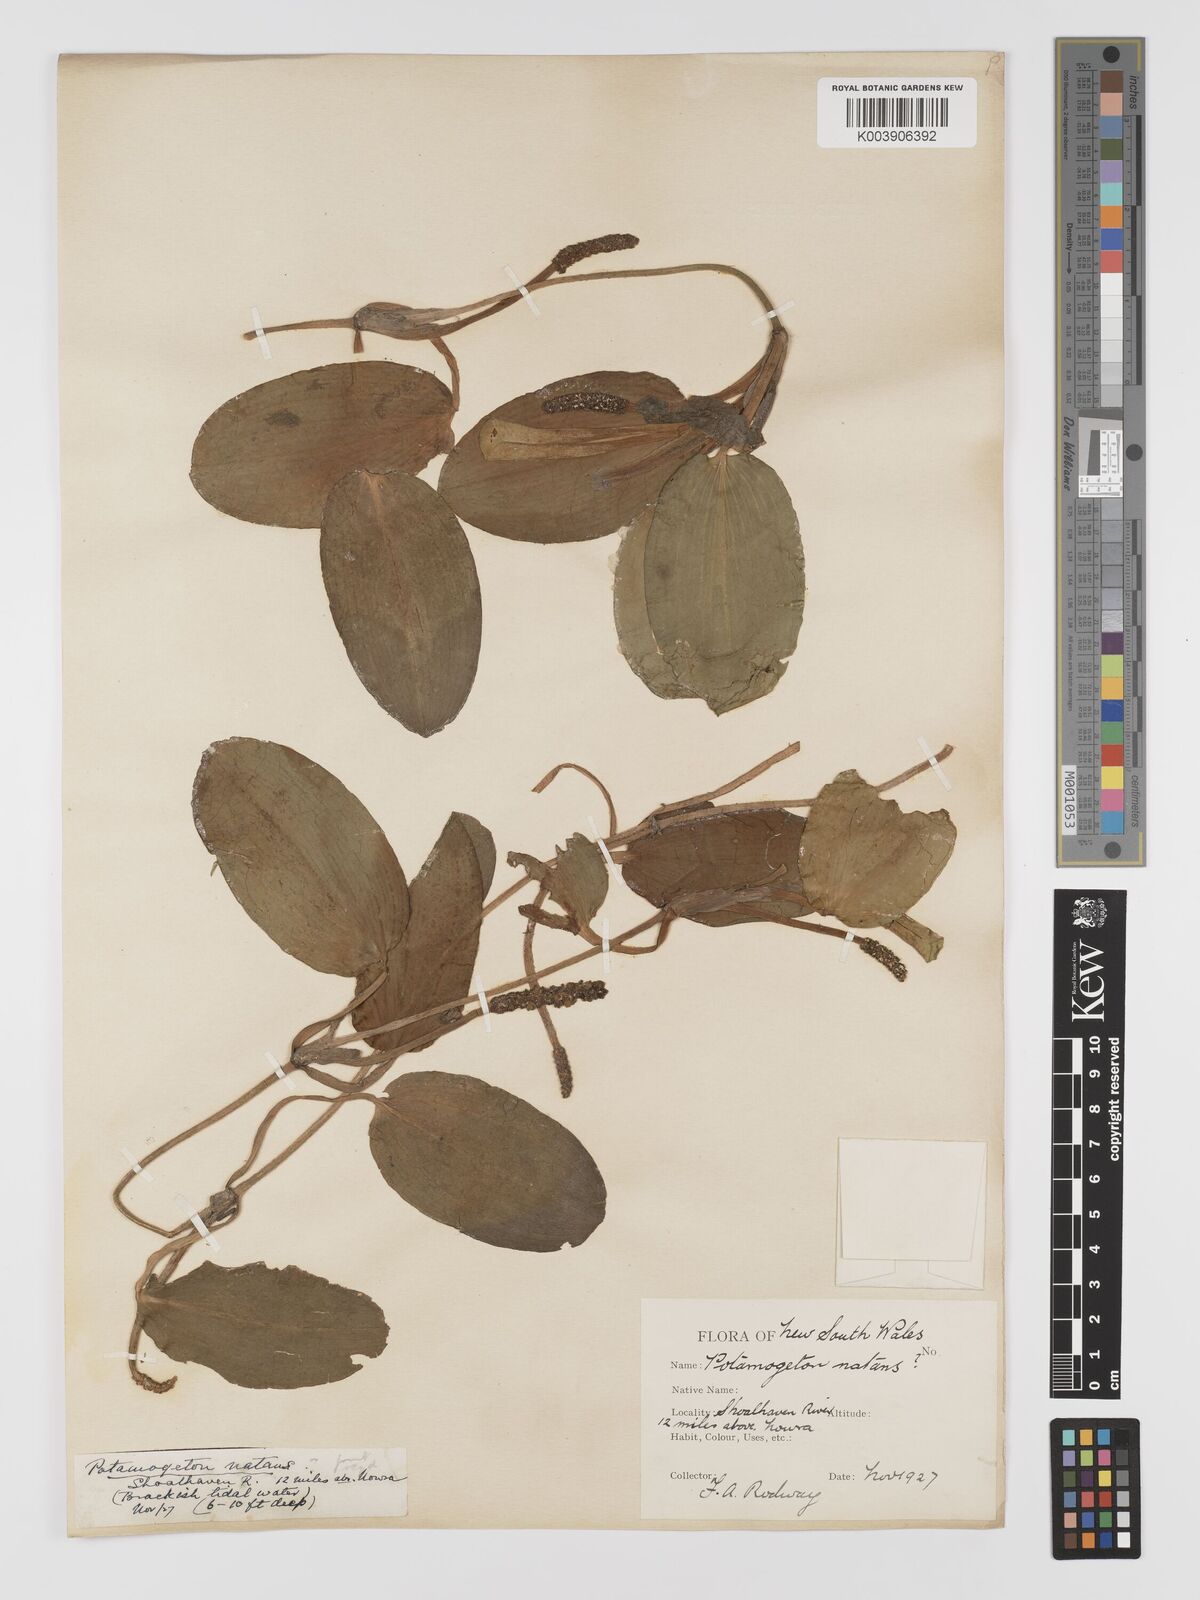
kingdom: Plantae
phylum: Tracheophyta
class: Liliopsida
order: Alismatales
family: Potamogetonaceae
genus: Potamogeton
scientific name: Potamogeton tricarinatus
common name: Pondweed
